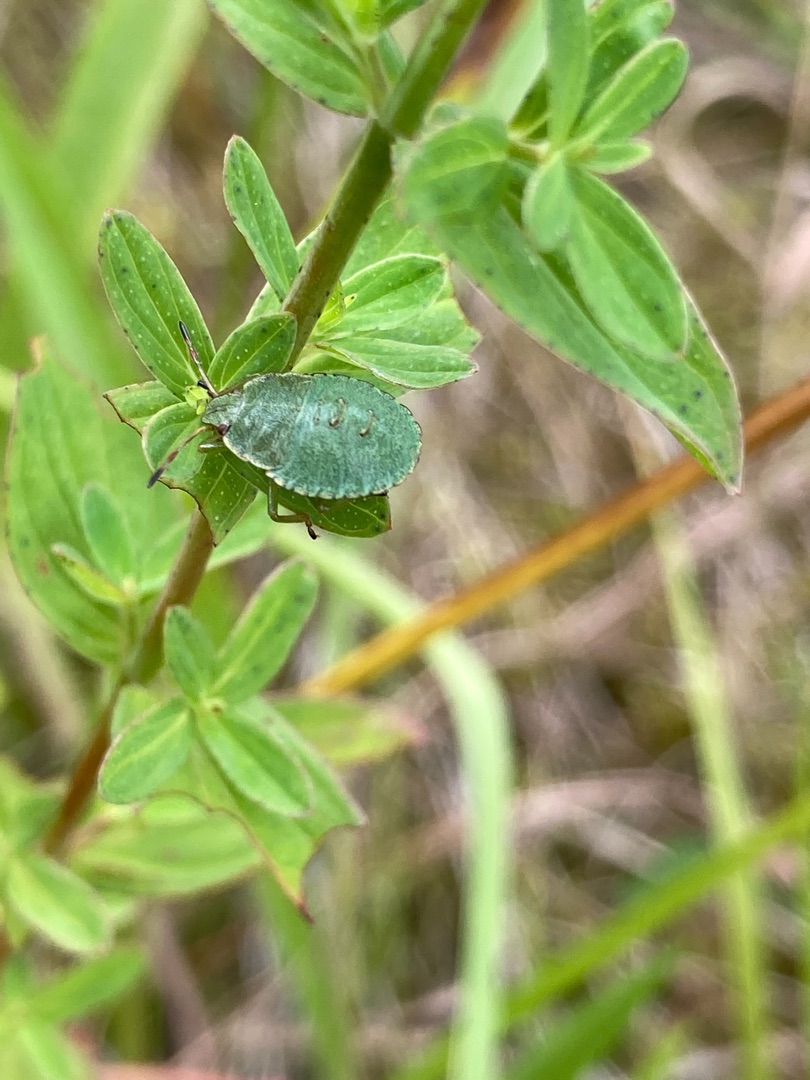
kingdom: Animalia
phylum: Arthropoda
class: Insecta
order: Hemiptera
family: Pentatomidae
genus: Palomena
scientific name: Palomena prasina
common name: Grøn bredtæge
